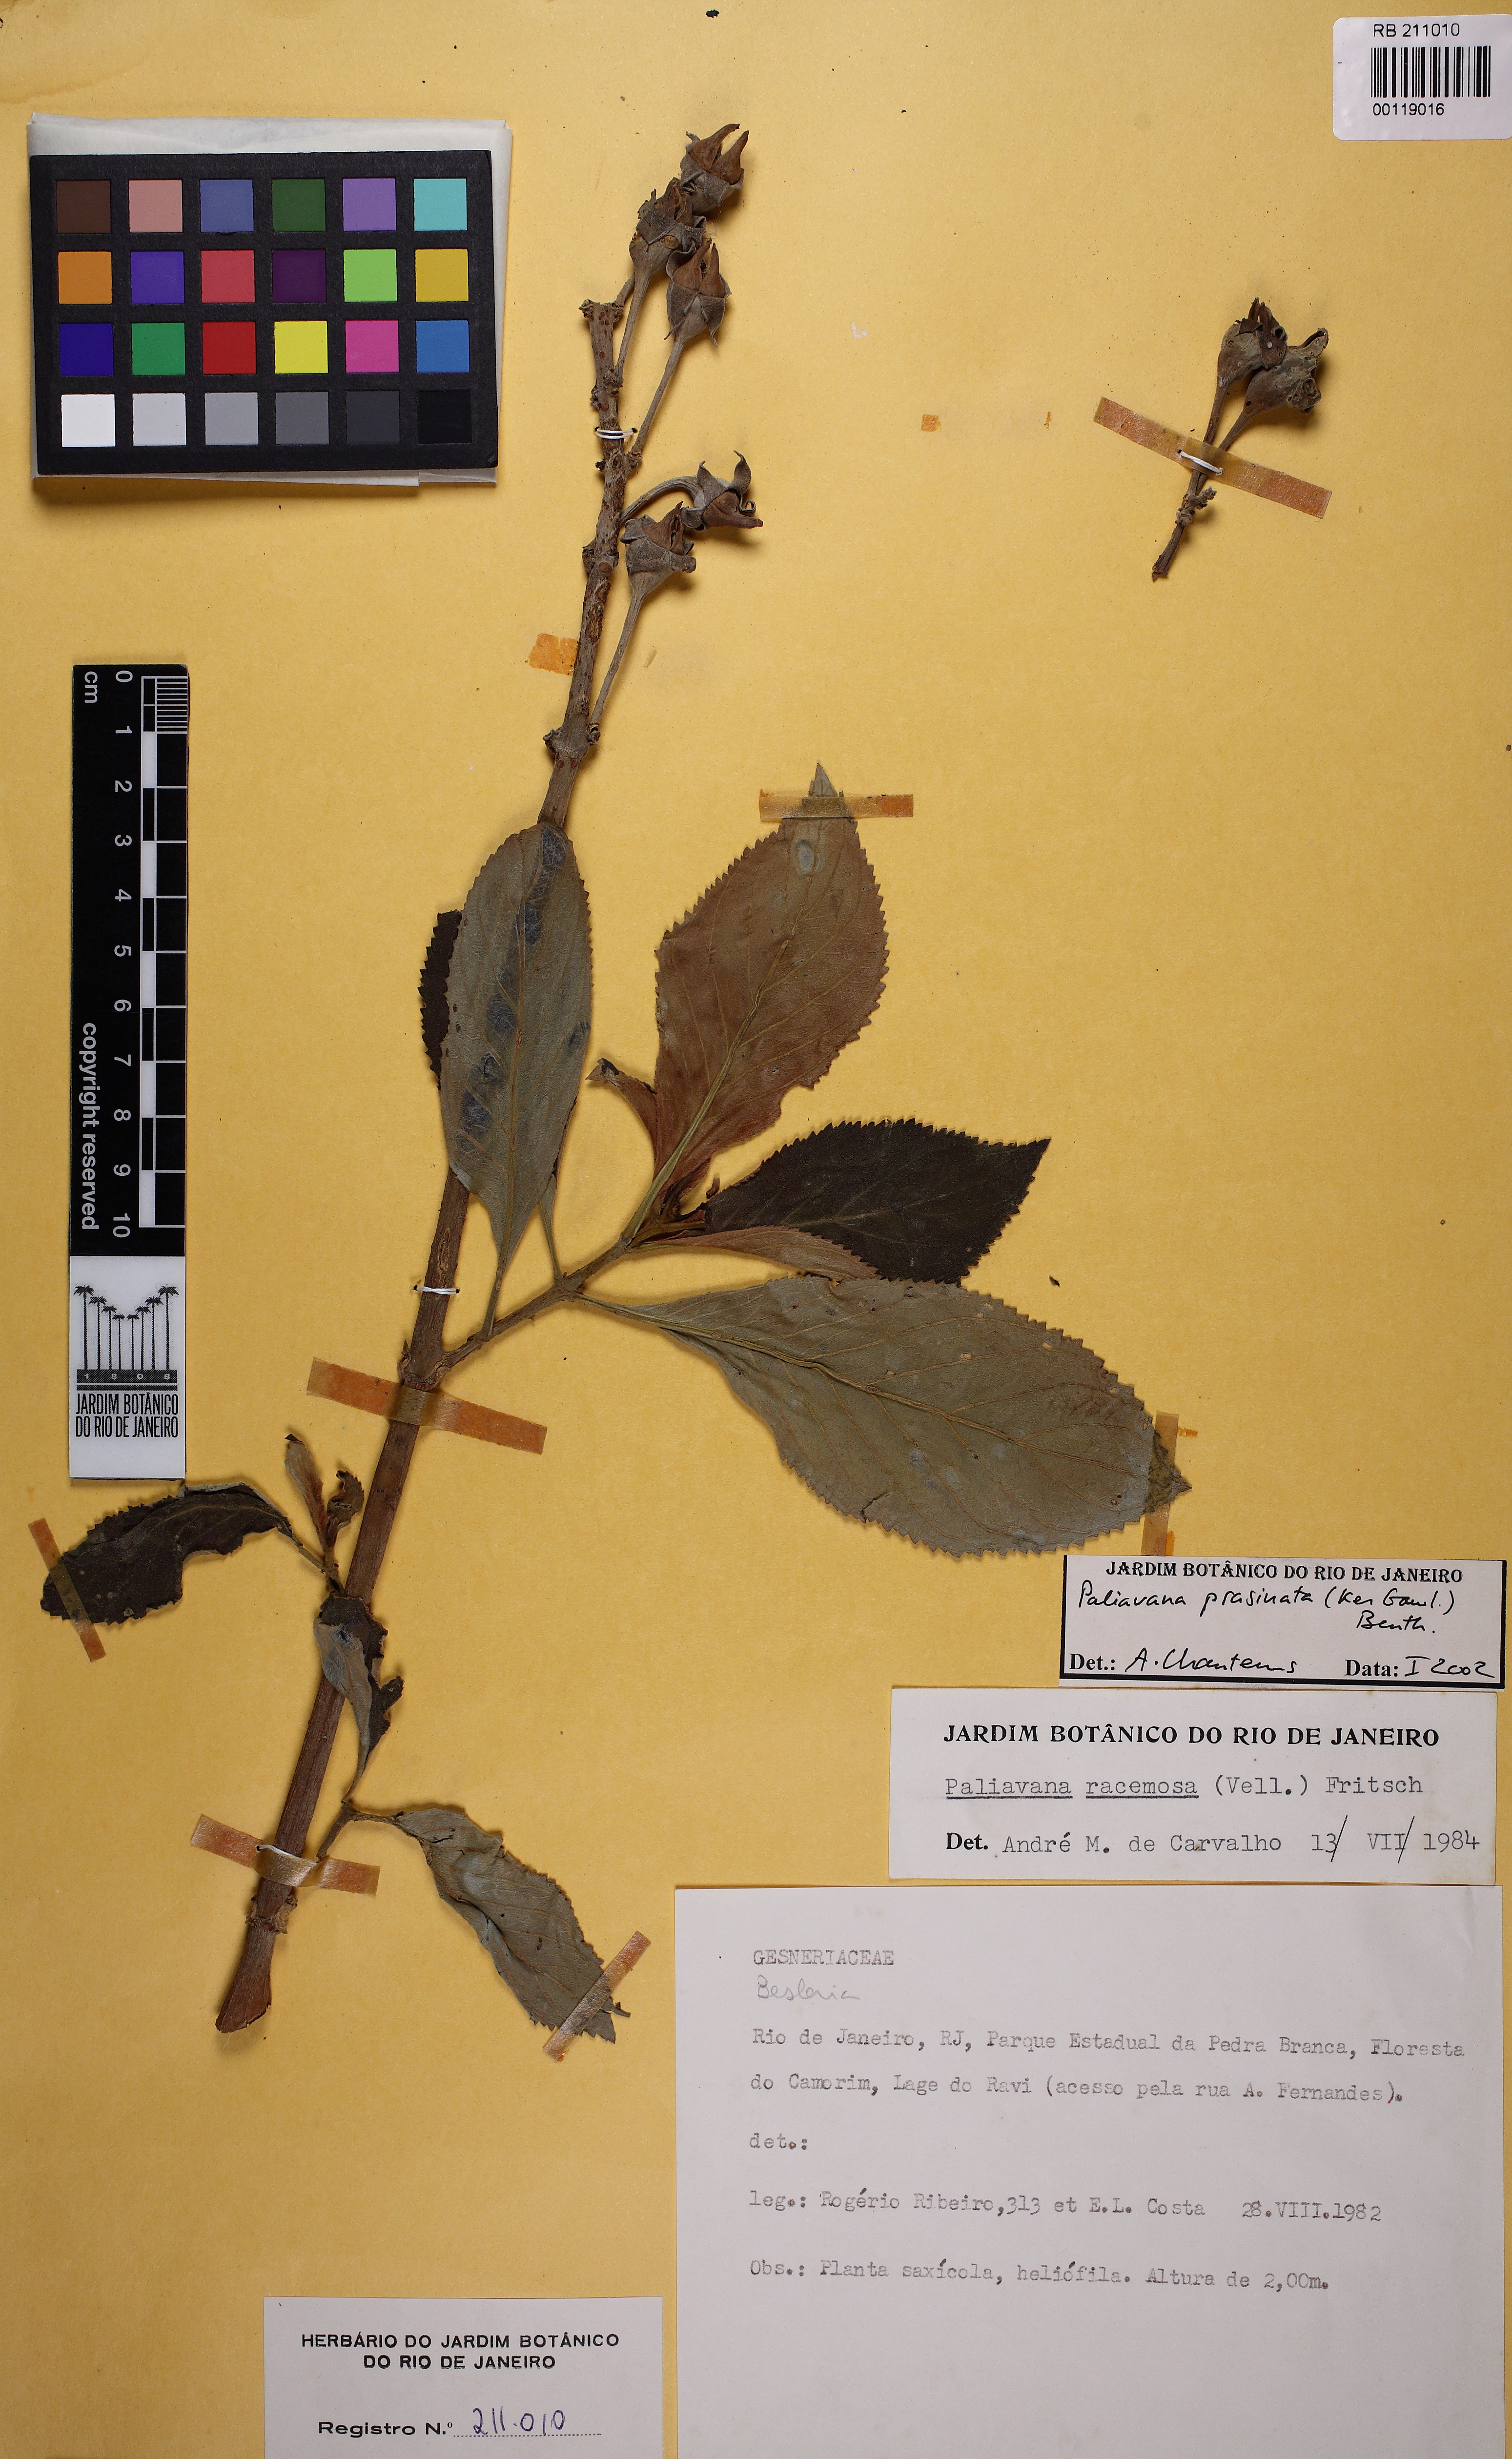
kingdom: Plantae
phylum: Tracheophyta
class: Magnoliopsida
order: Lamiales
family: Gesneriaceae
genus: Paliavana
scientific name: Paliavana prasinata
